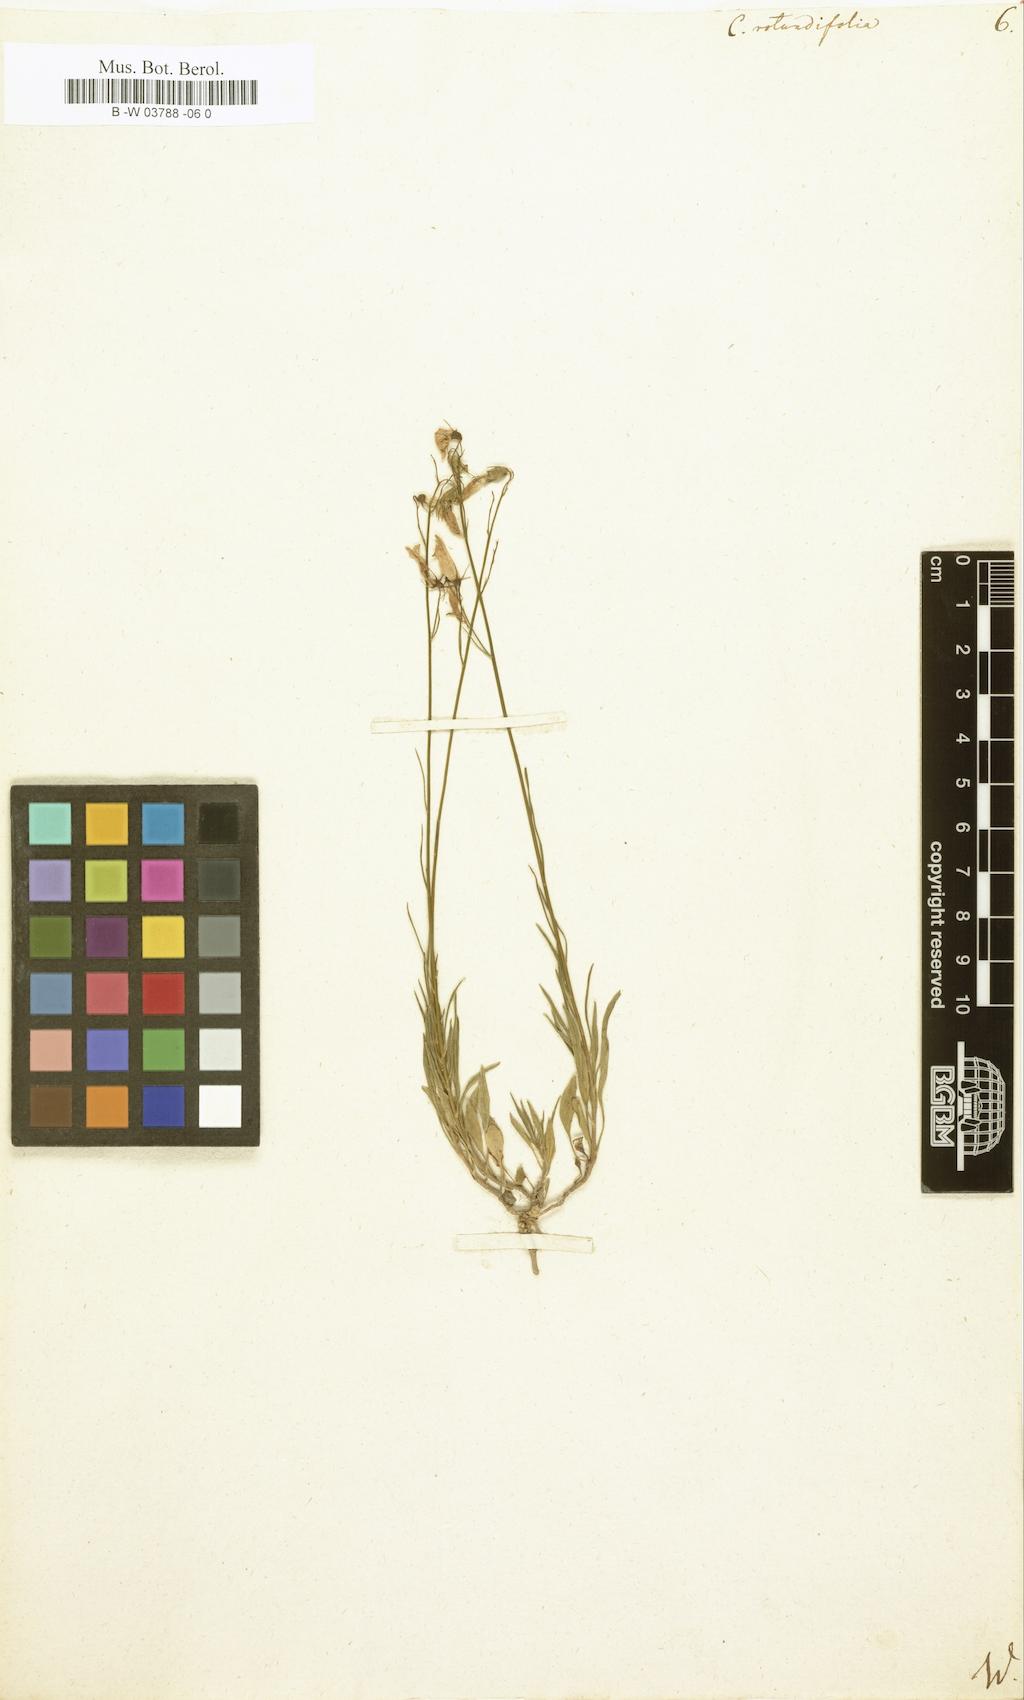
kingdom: Plantae
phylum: Tracheophyta
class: Magnoliopsida
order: Asterales
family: Campanulaceae
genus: Campanula
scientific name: Campanula rotundifolia
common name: Harebell
